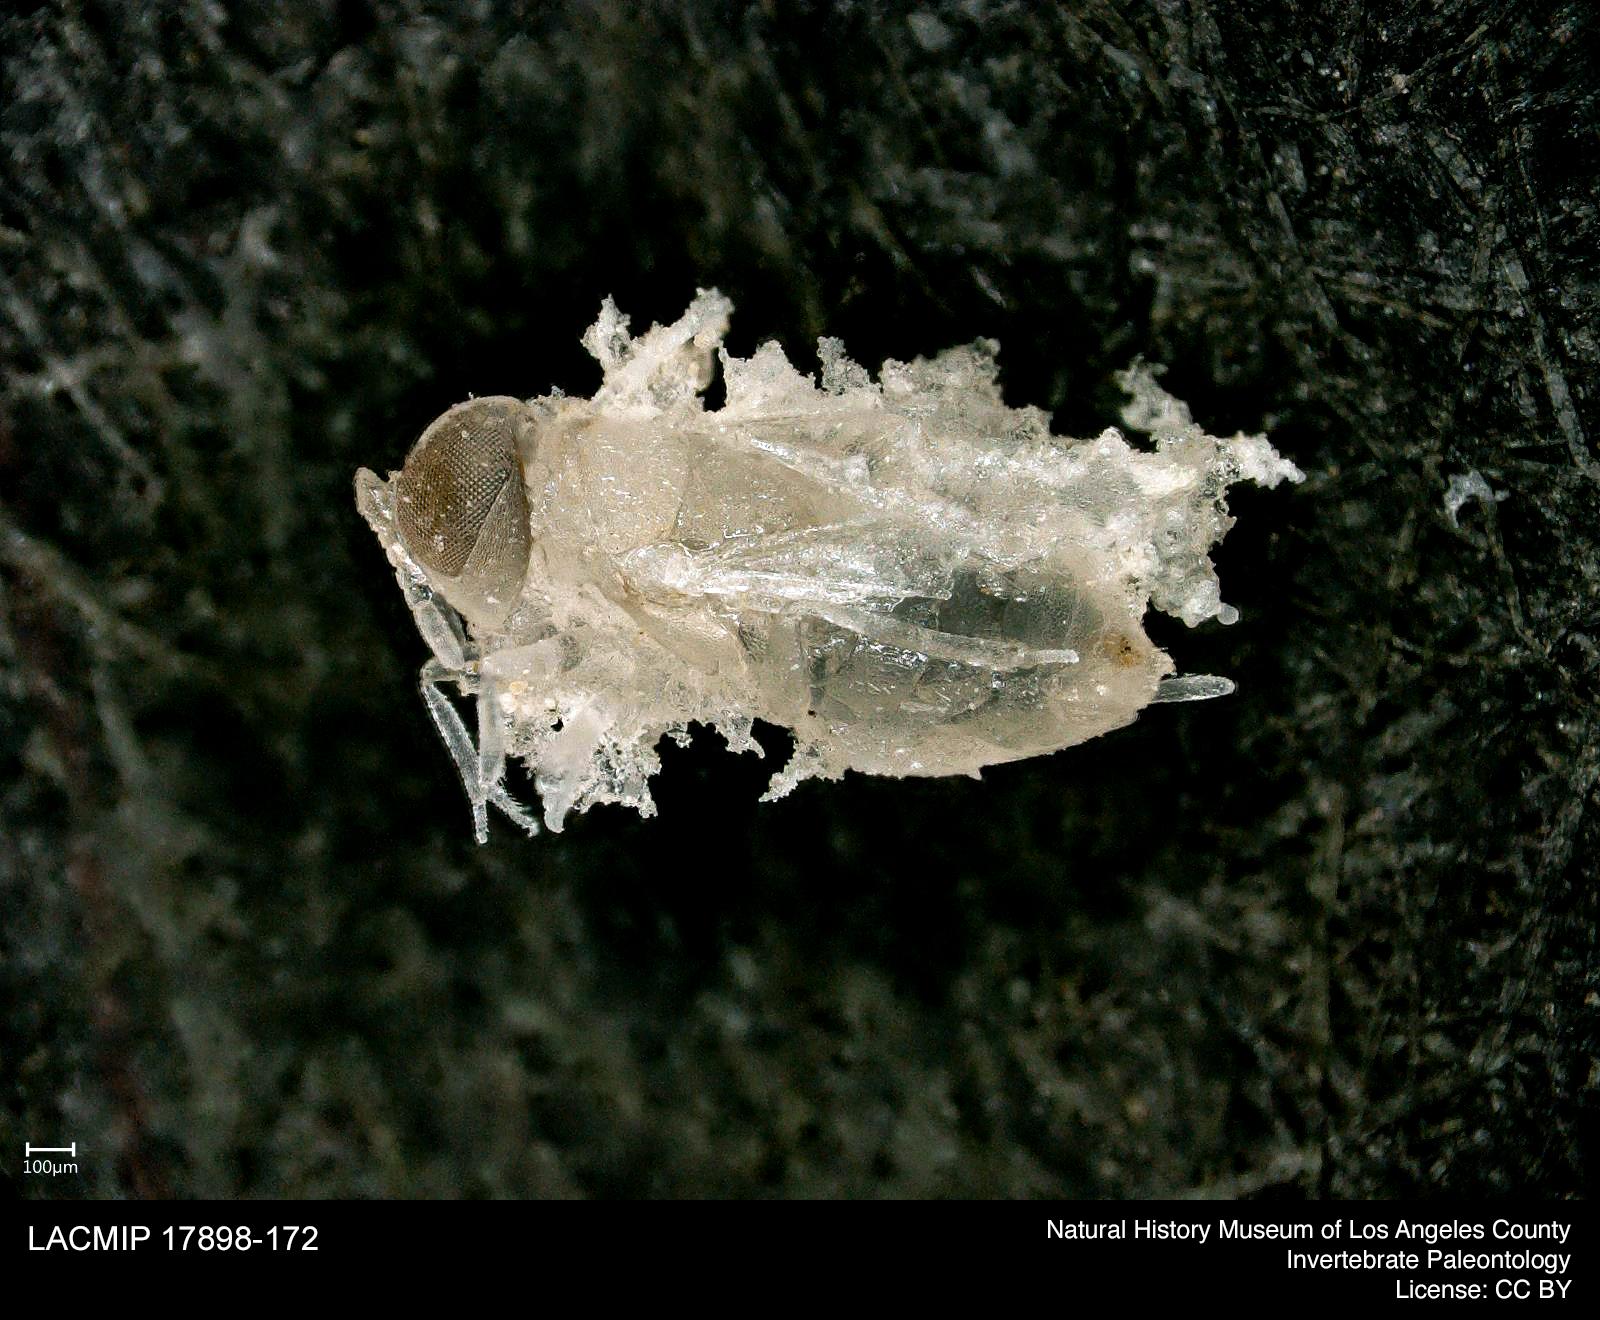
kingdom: Animalia
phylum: Arthropoda
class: Insecta
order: Diptera
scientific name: Diptera
